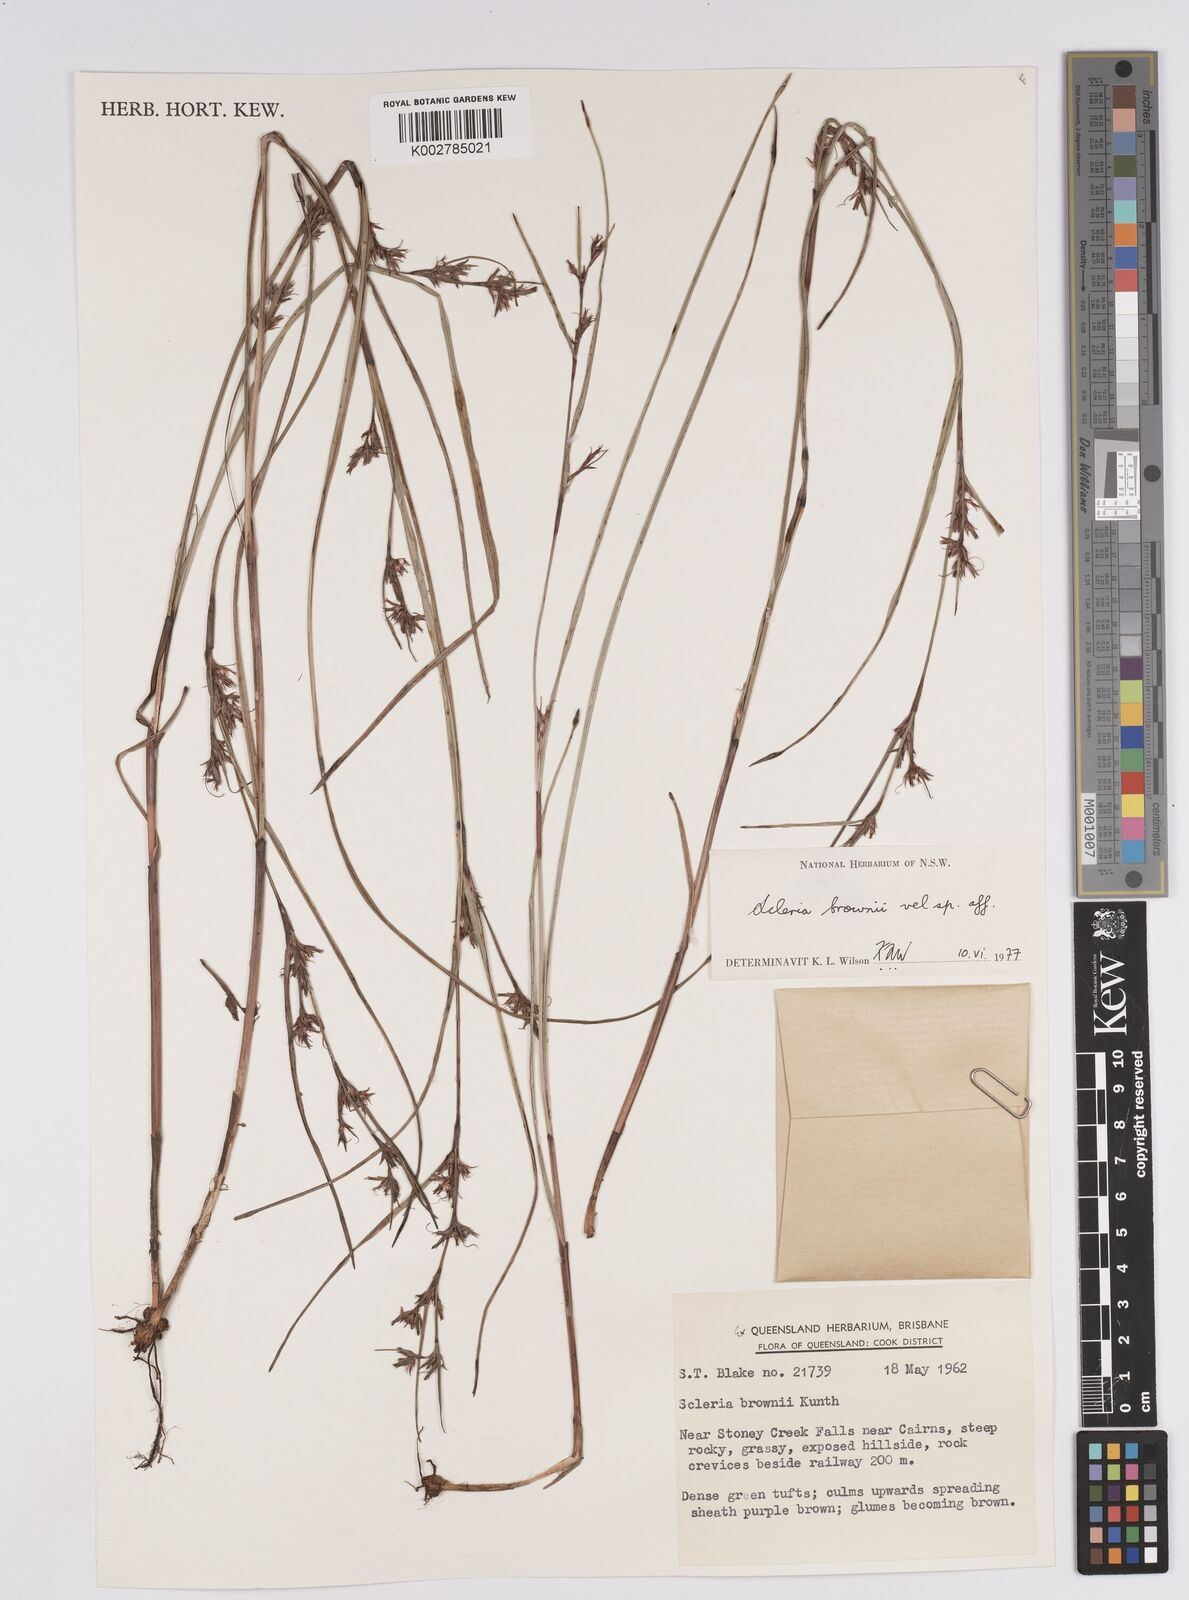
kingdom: Plantae
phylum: Tracheophyta
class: Liliopsida
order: Poales
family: Cyperaceae
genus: Scleria
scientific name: Scleria brownii
